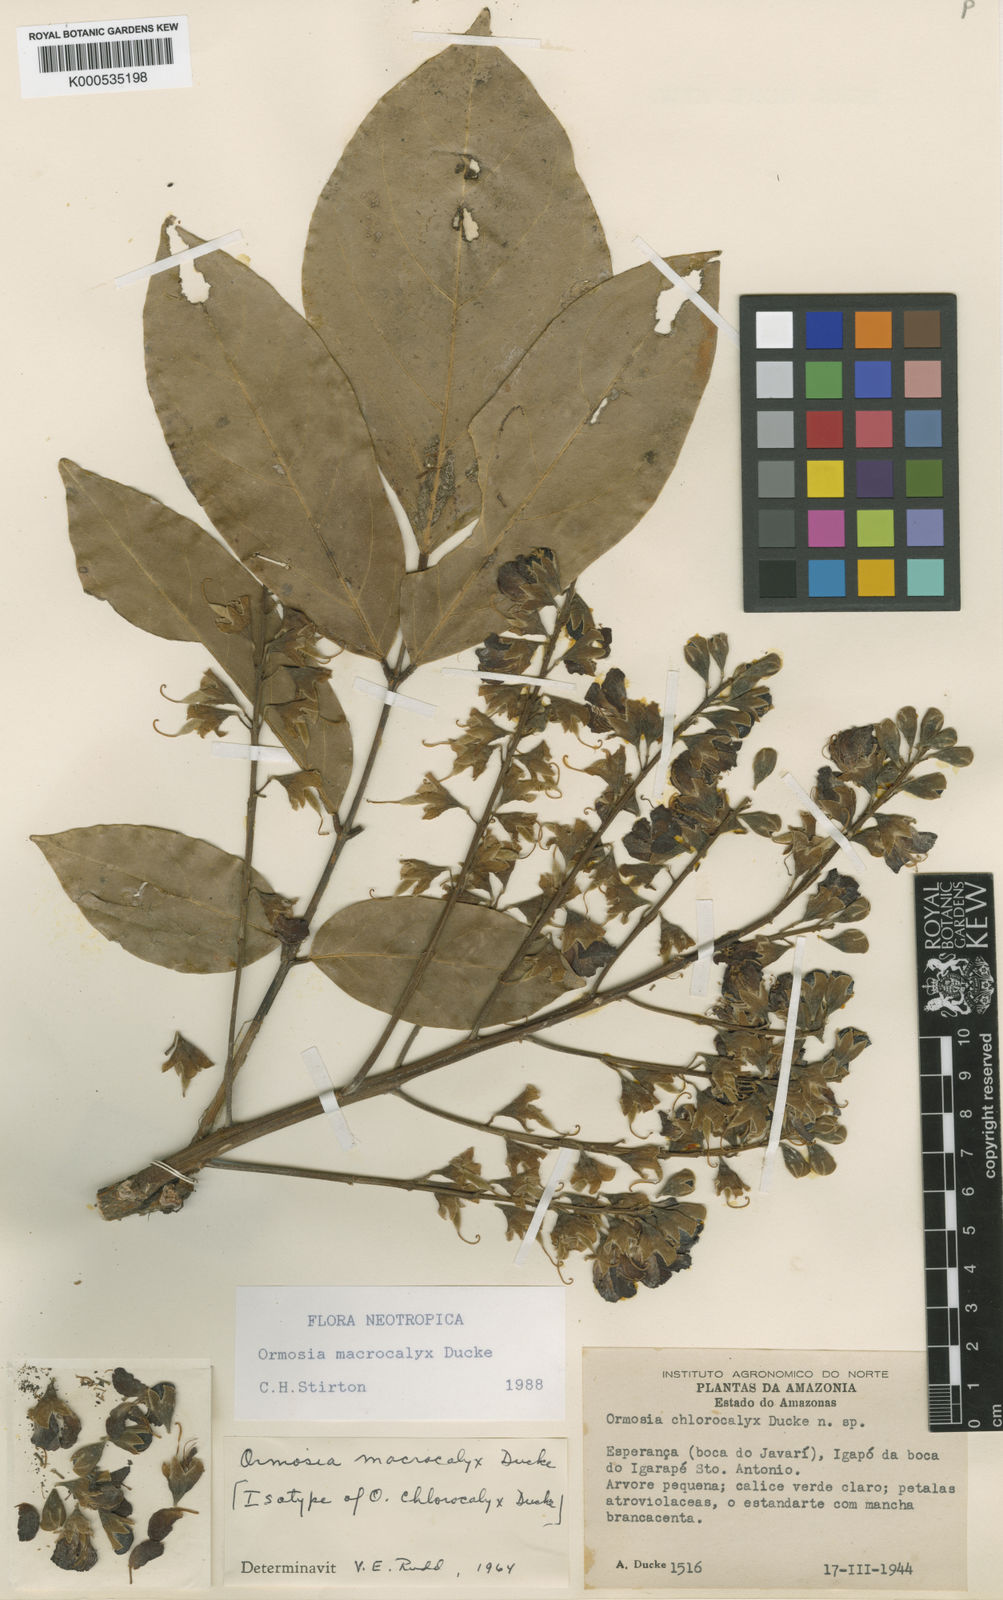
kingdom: Plantae
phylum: Tracheophyta
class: Magnoliopsida
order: Fabales
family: Fabaceae
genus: Ormosia
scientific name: Ormosia macrocalyx
